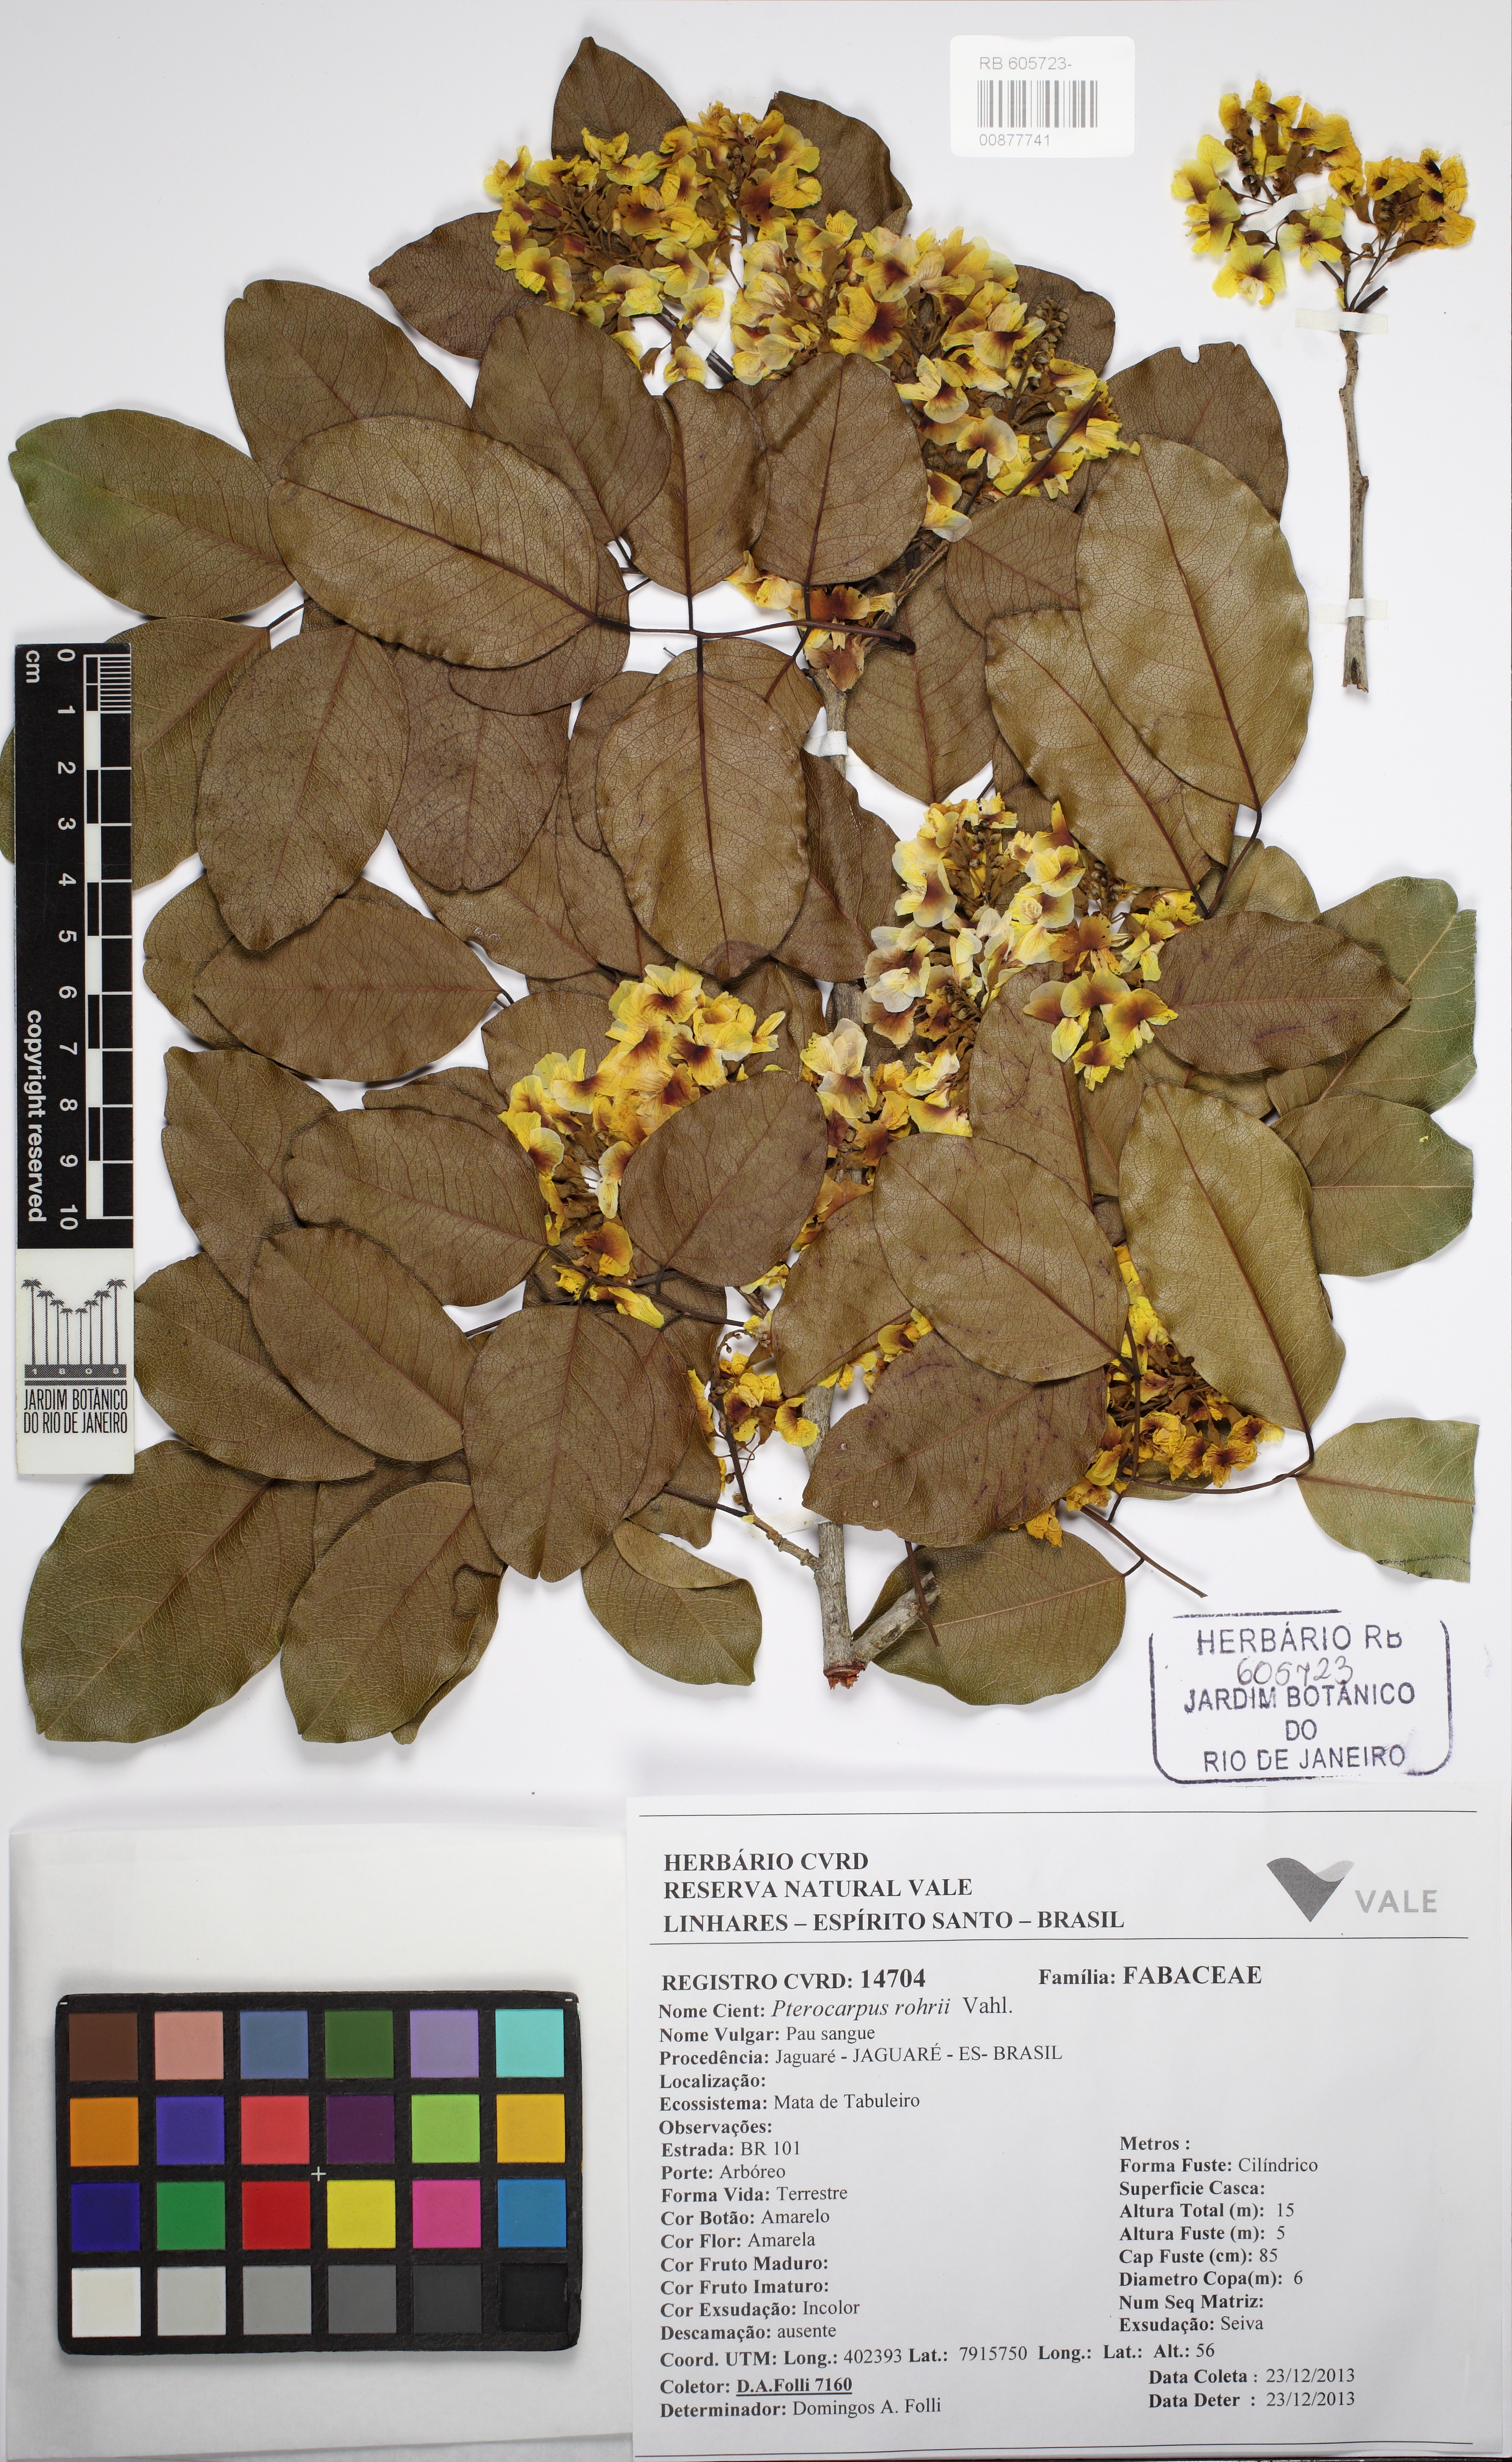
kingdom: Plantae
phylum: Tracheophyta
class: Magnoliopsida
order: Fabales
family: Fabaceae
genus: Pterocarpus
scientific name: Pterocarpus santalinoides
